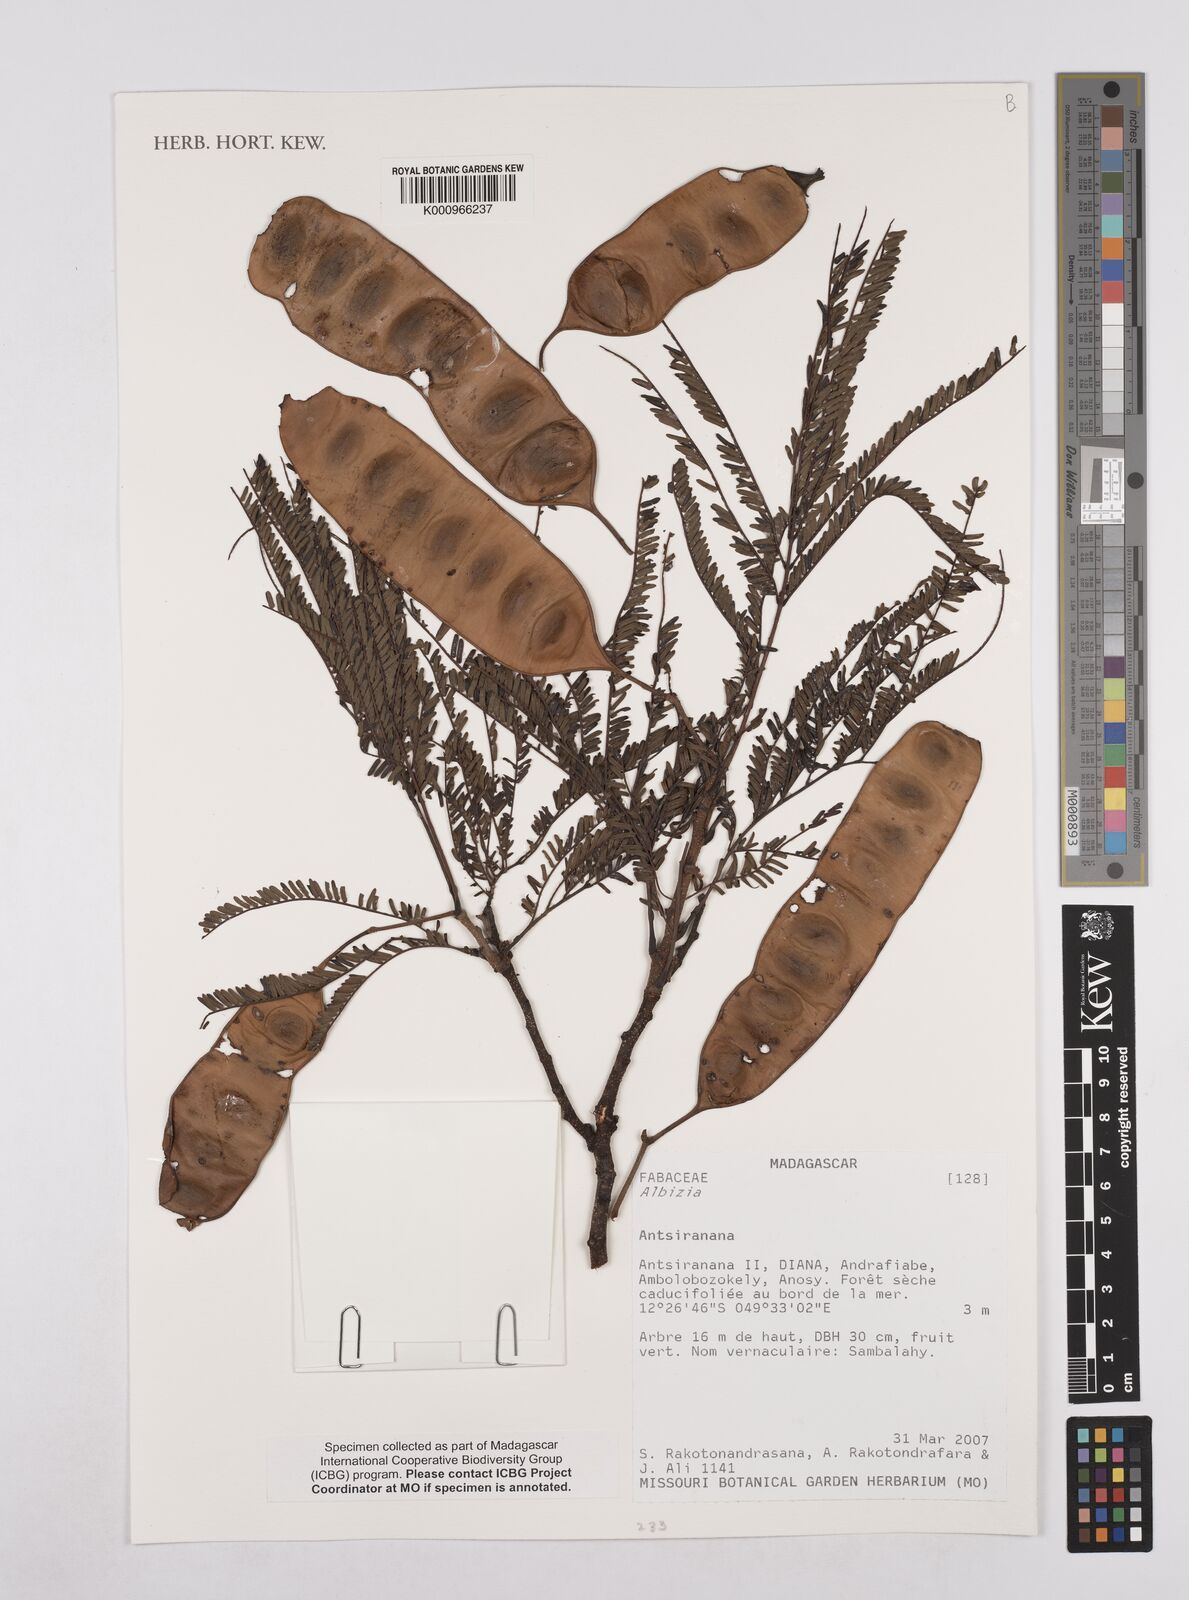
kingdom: Plantae
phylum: Tracheophyta
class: Magnoliopsida
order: Fabales
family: Fabaceae
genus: Albizia
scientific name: Albizia
